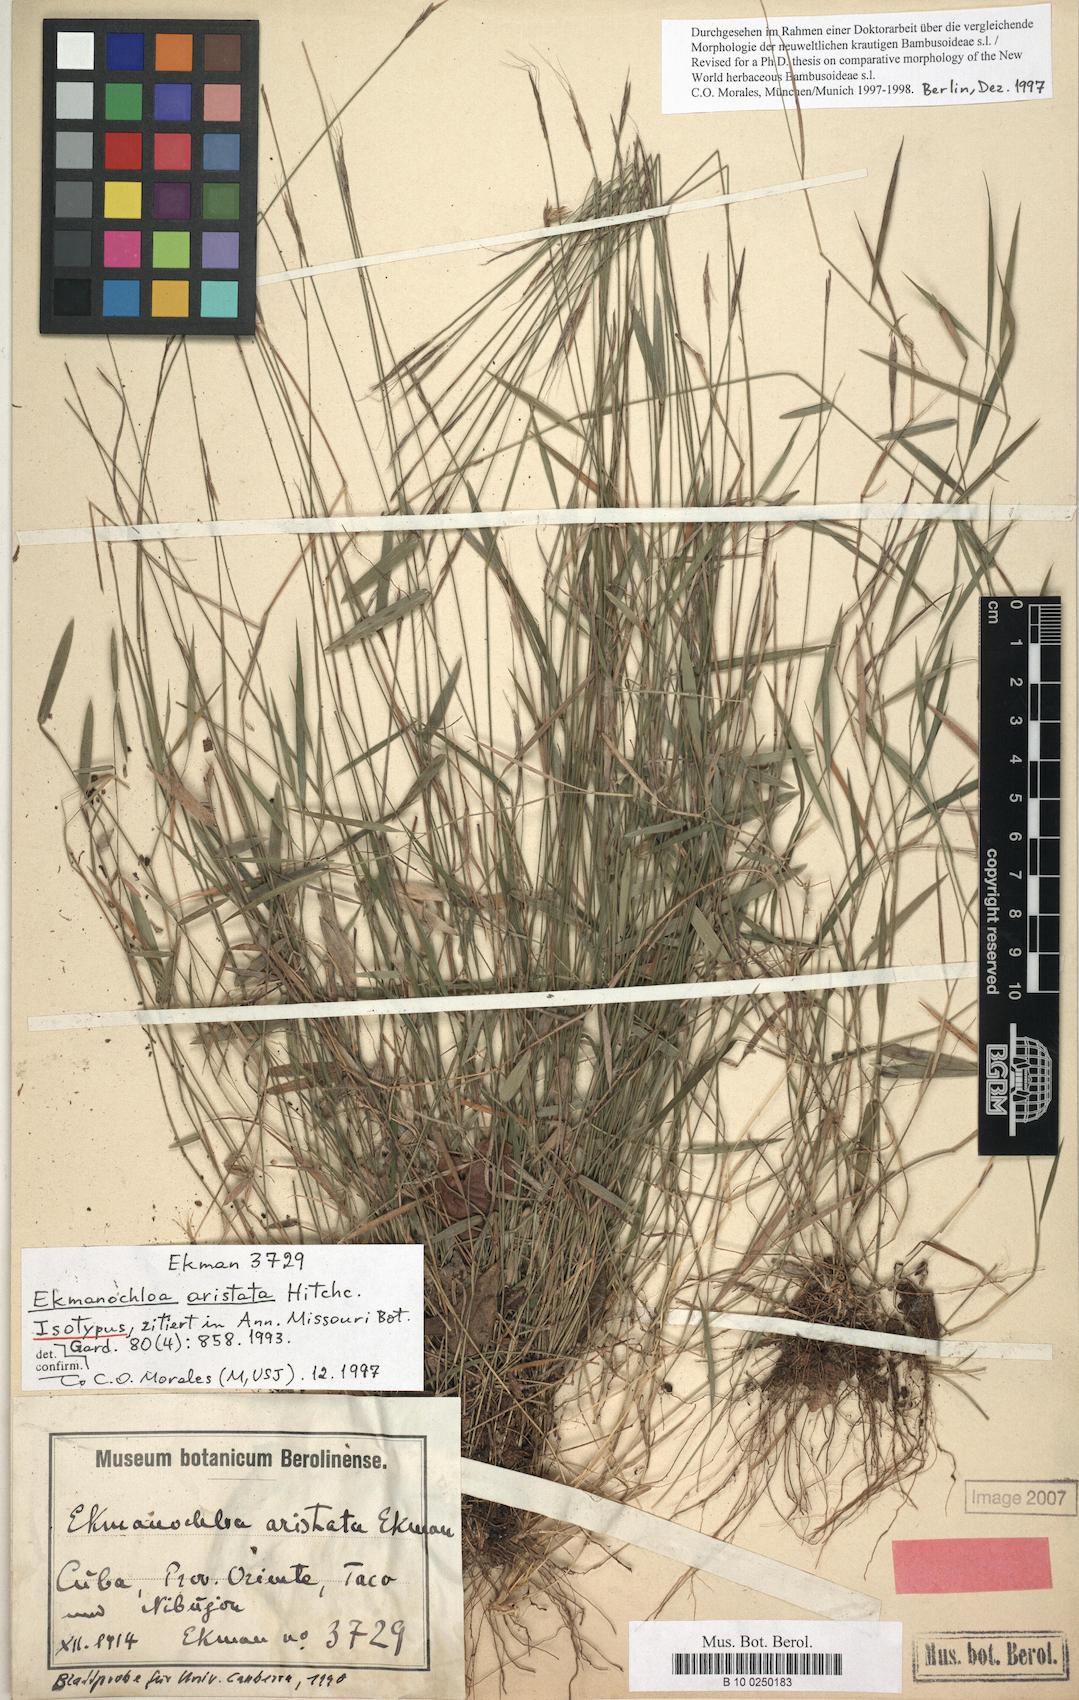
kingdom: Plantae
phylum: Tracheophyta
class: Liliopsida
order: Poales
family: Poaceae
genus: Ekmanochloa
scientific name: Ekmanochloa aristata
